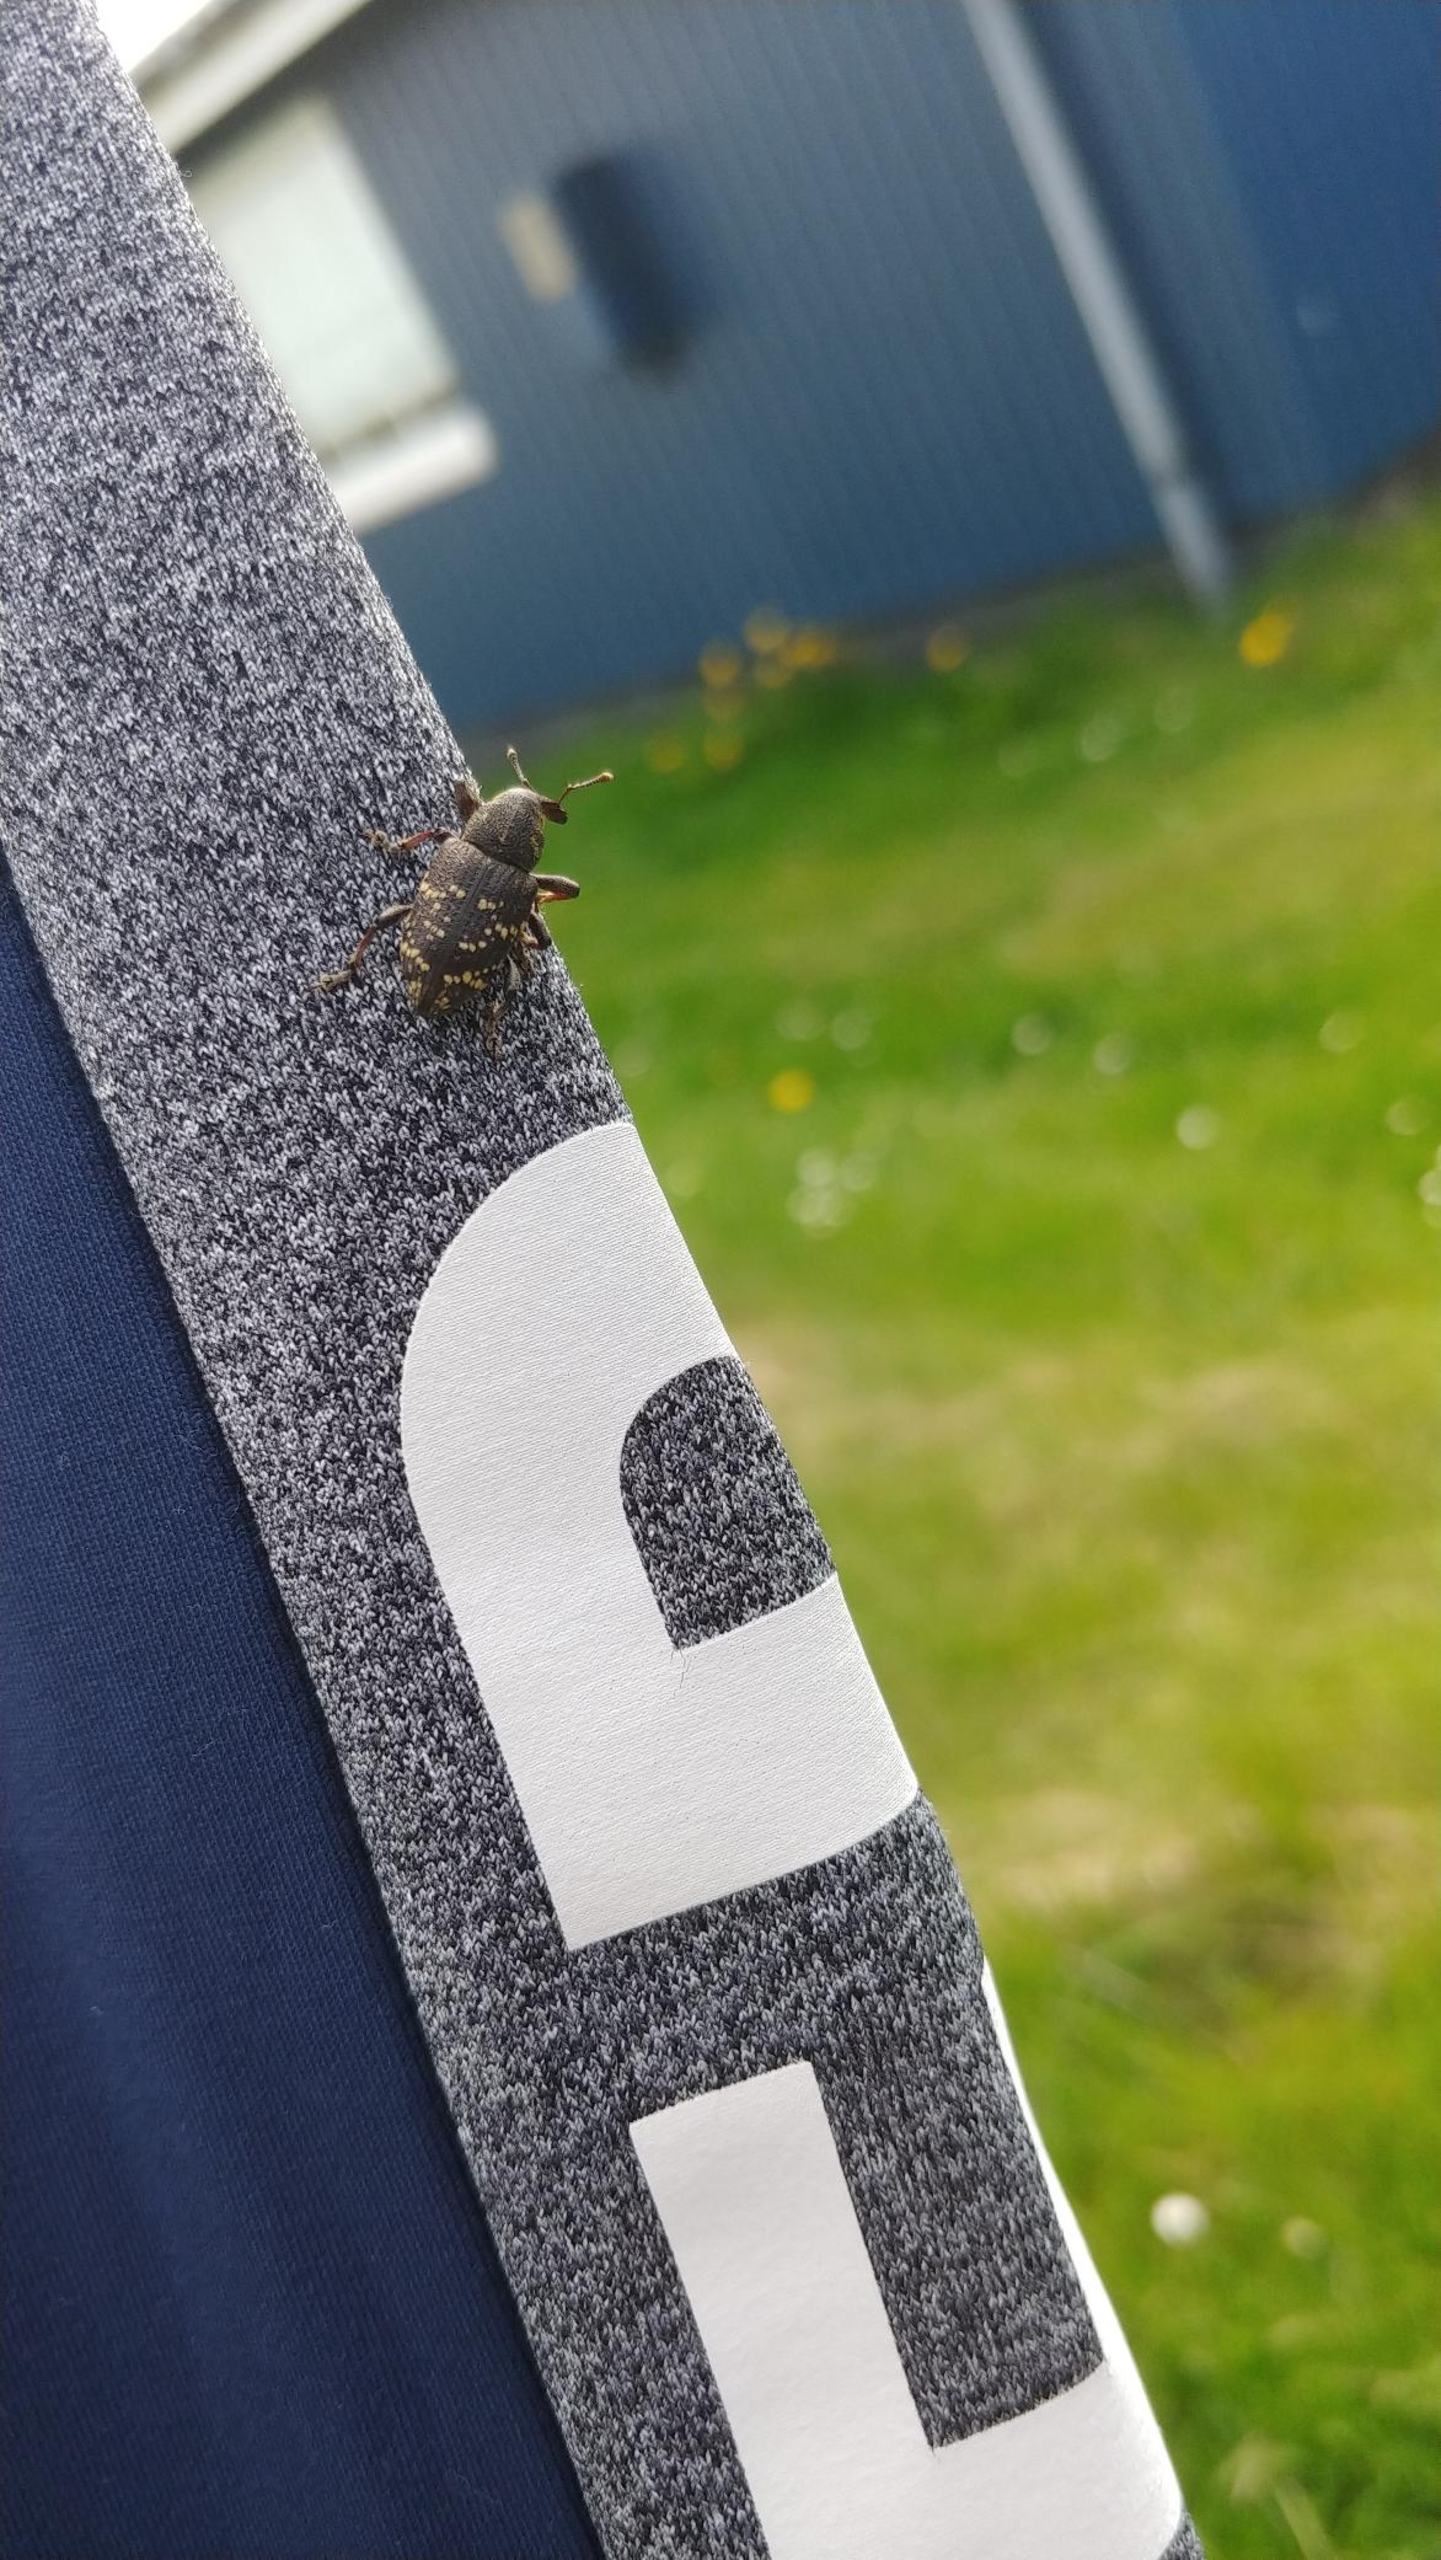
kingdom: Animalia
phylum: Arthropoda
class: Insecta
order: Coleoptera
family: Curculionidae
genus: Hylobius
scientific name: Hylobius abietis
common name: Stor nåletræsnudebille
